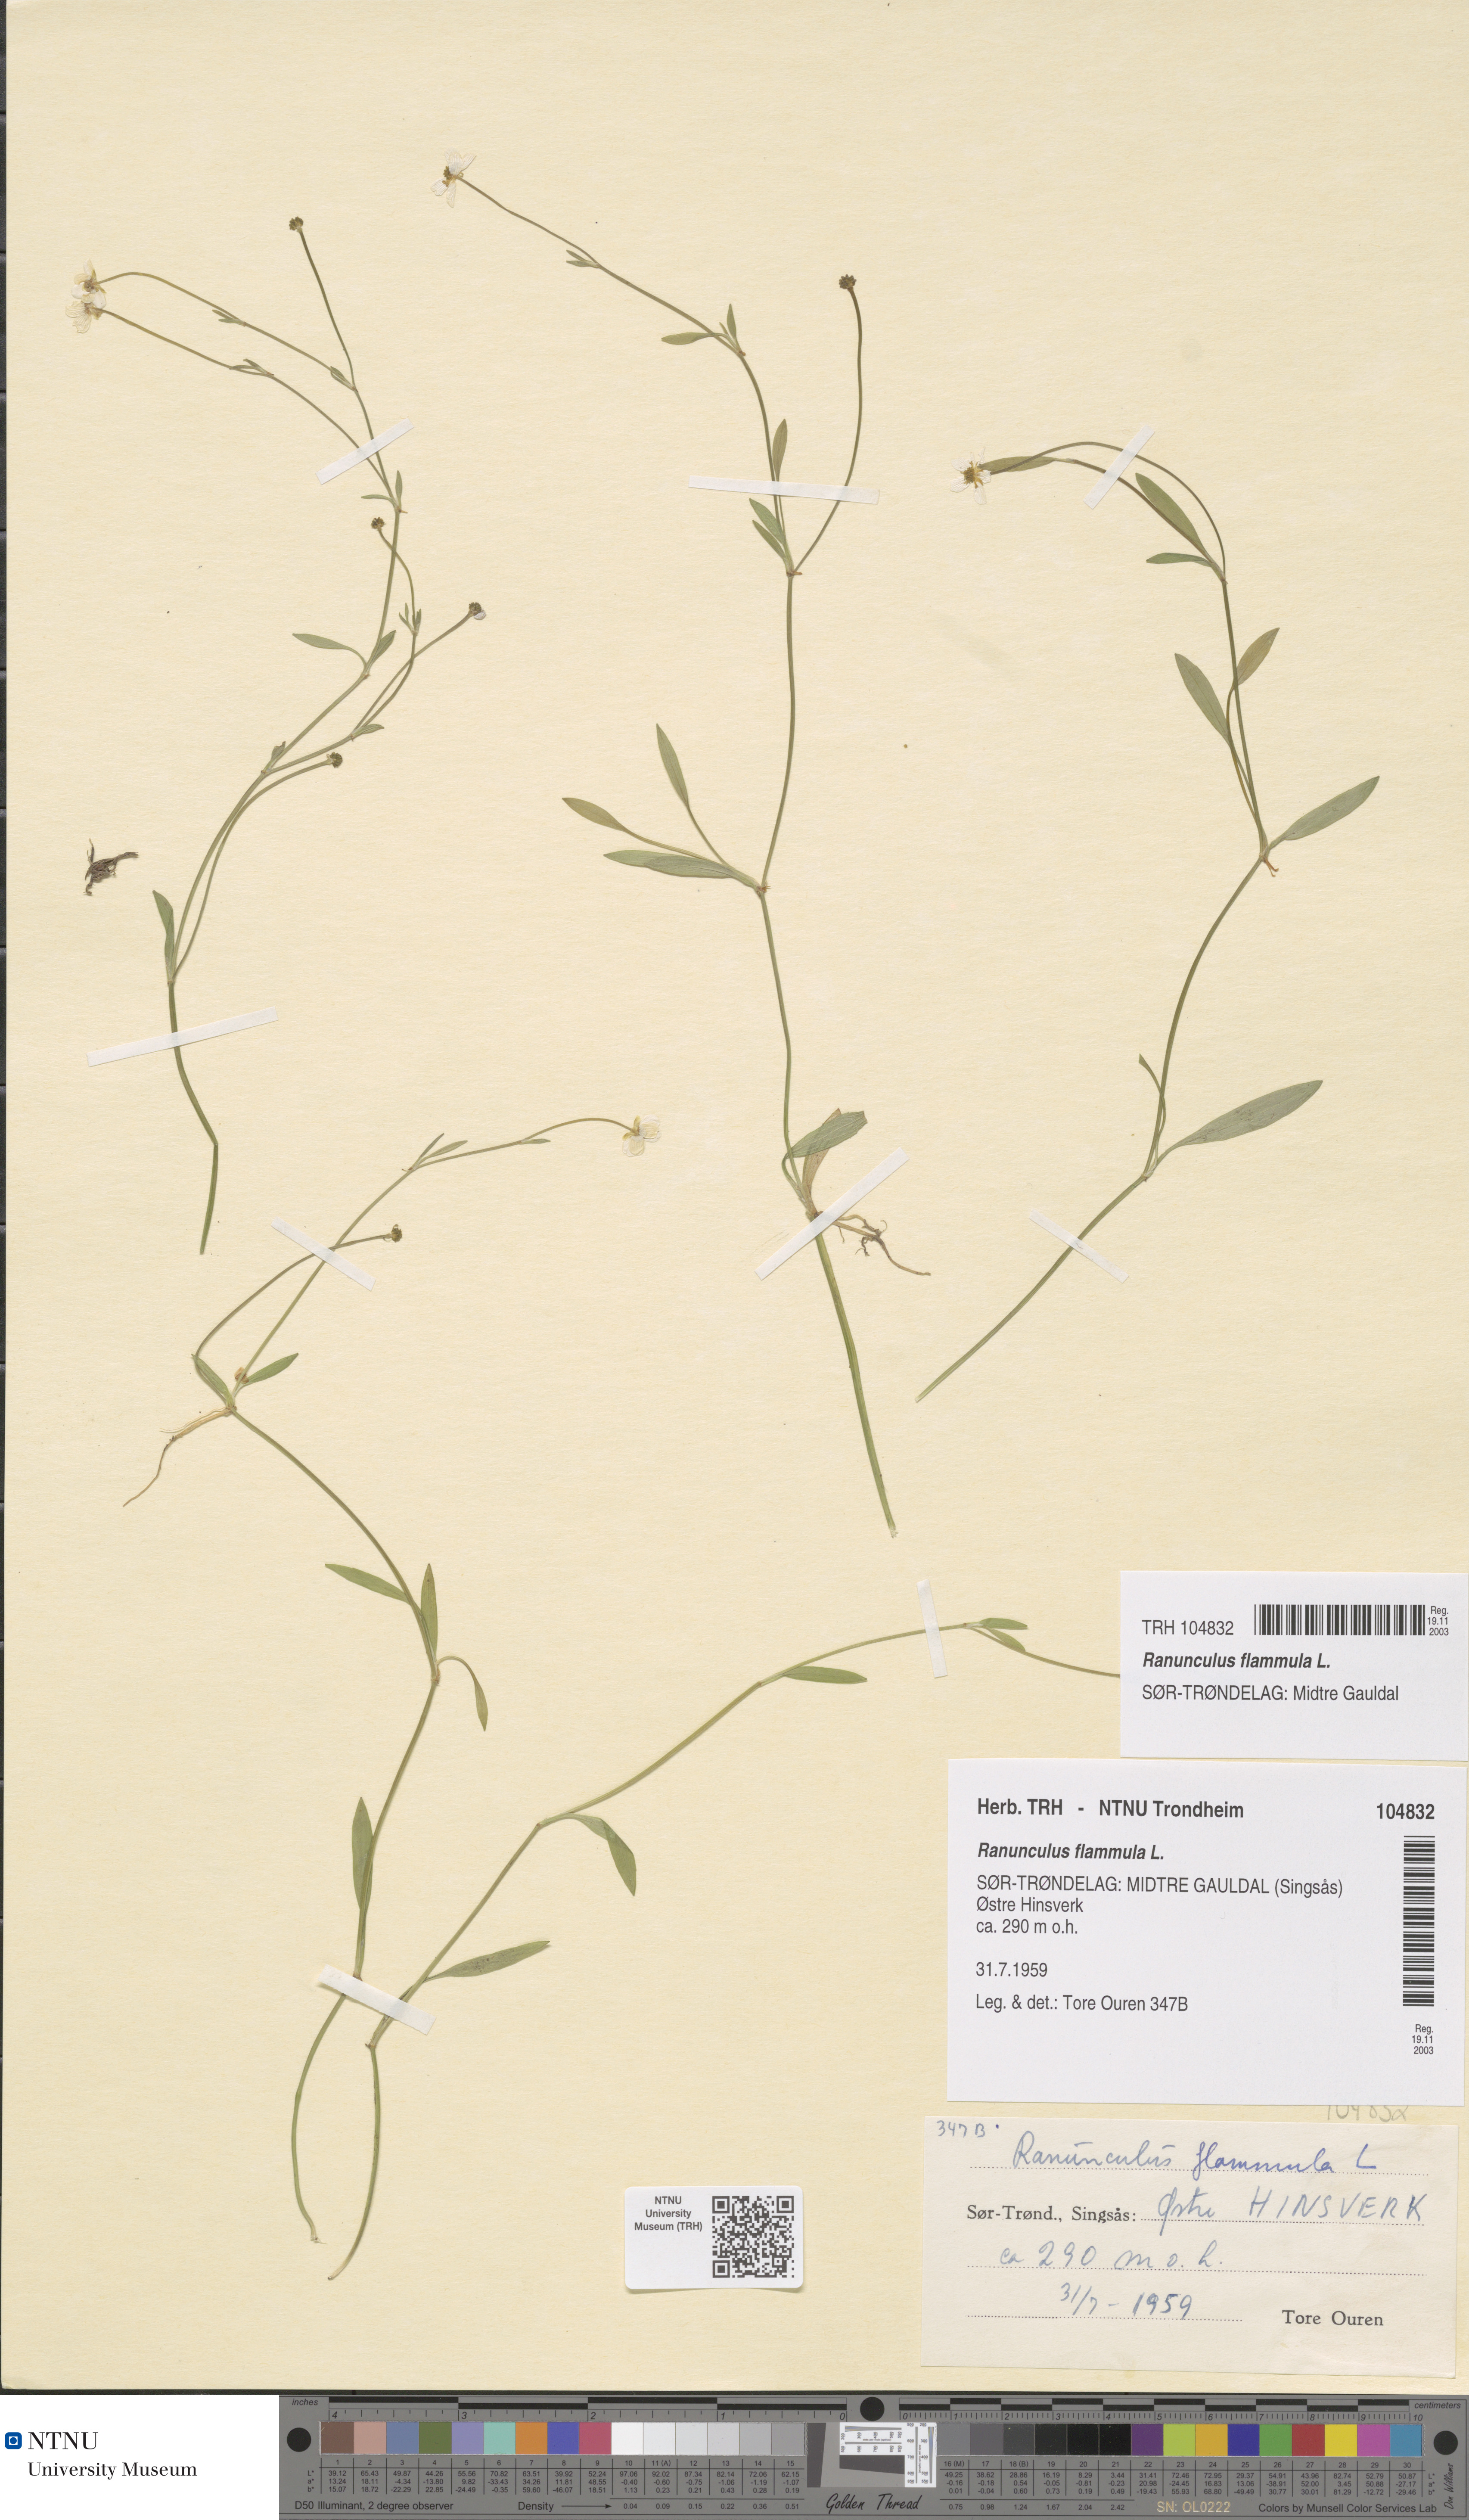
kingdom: Plantae
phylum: Tracheophyta
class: Magnoliopsida
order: Ranunculales
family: Ranunculaceae
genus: Ranunculus
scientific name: Ranunculus flammula
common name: Lesser spearwort
